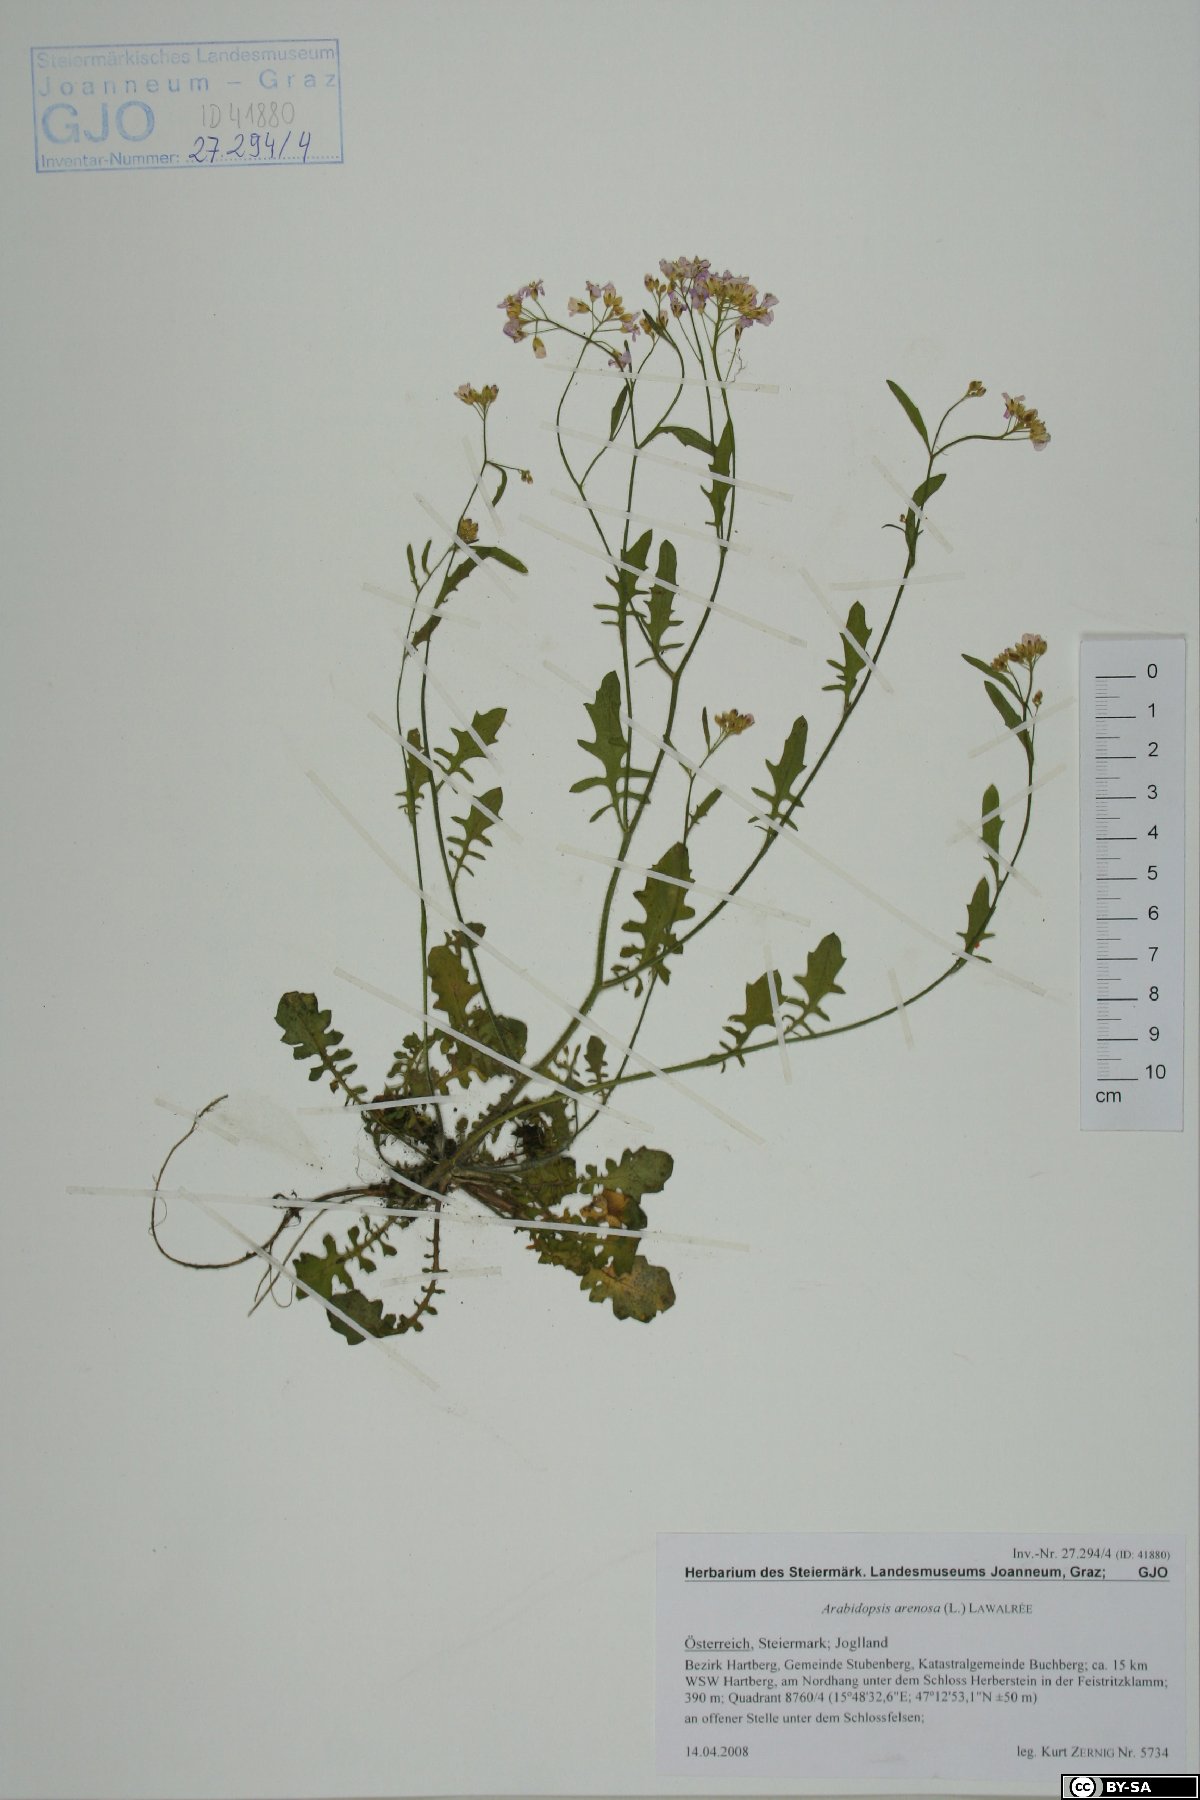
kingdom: Plantae
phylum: Bryophyta
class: Bryopsida
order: Hypnales
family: Brachytheciaceae
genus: Brachythecium
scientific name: Brachythecium rutabulum
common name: Rough-stalked feather-moss
